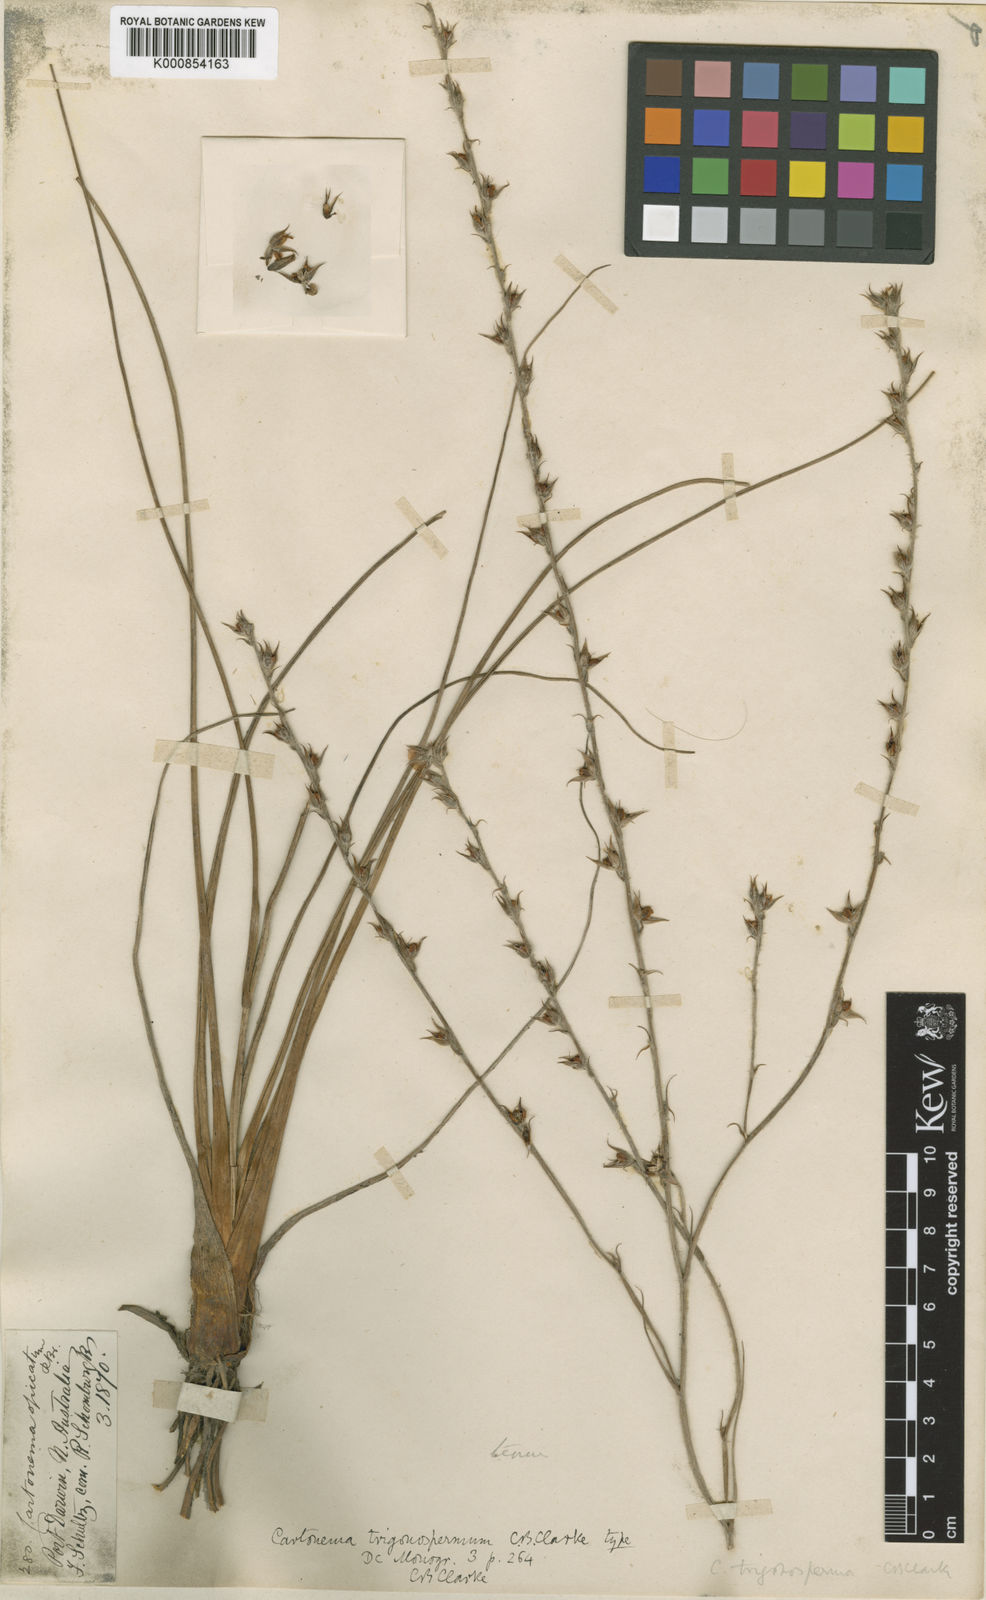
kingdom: Plantae
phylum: Tracheophyta
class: Liliopsida
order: Commelinales
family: Commelinaceae
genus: Cartonema
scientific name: Cartonema trigonospermum
